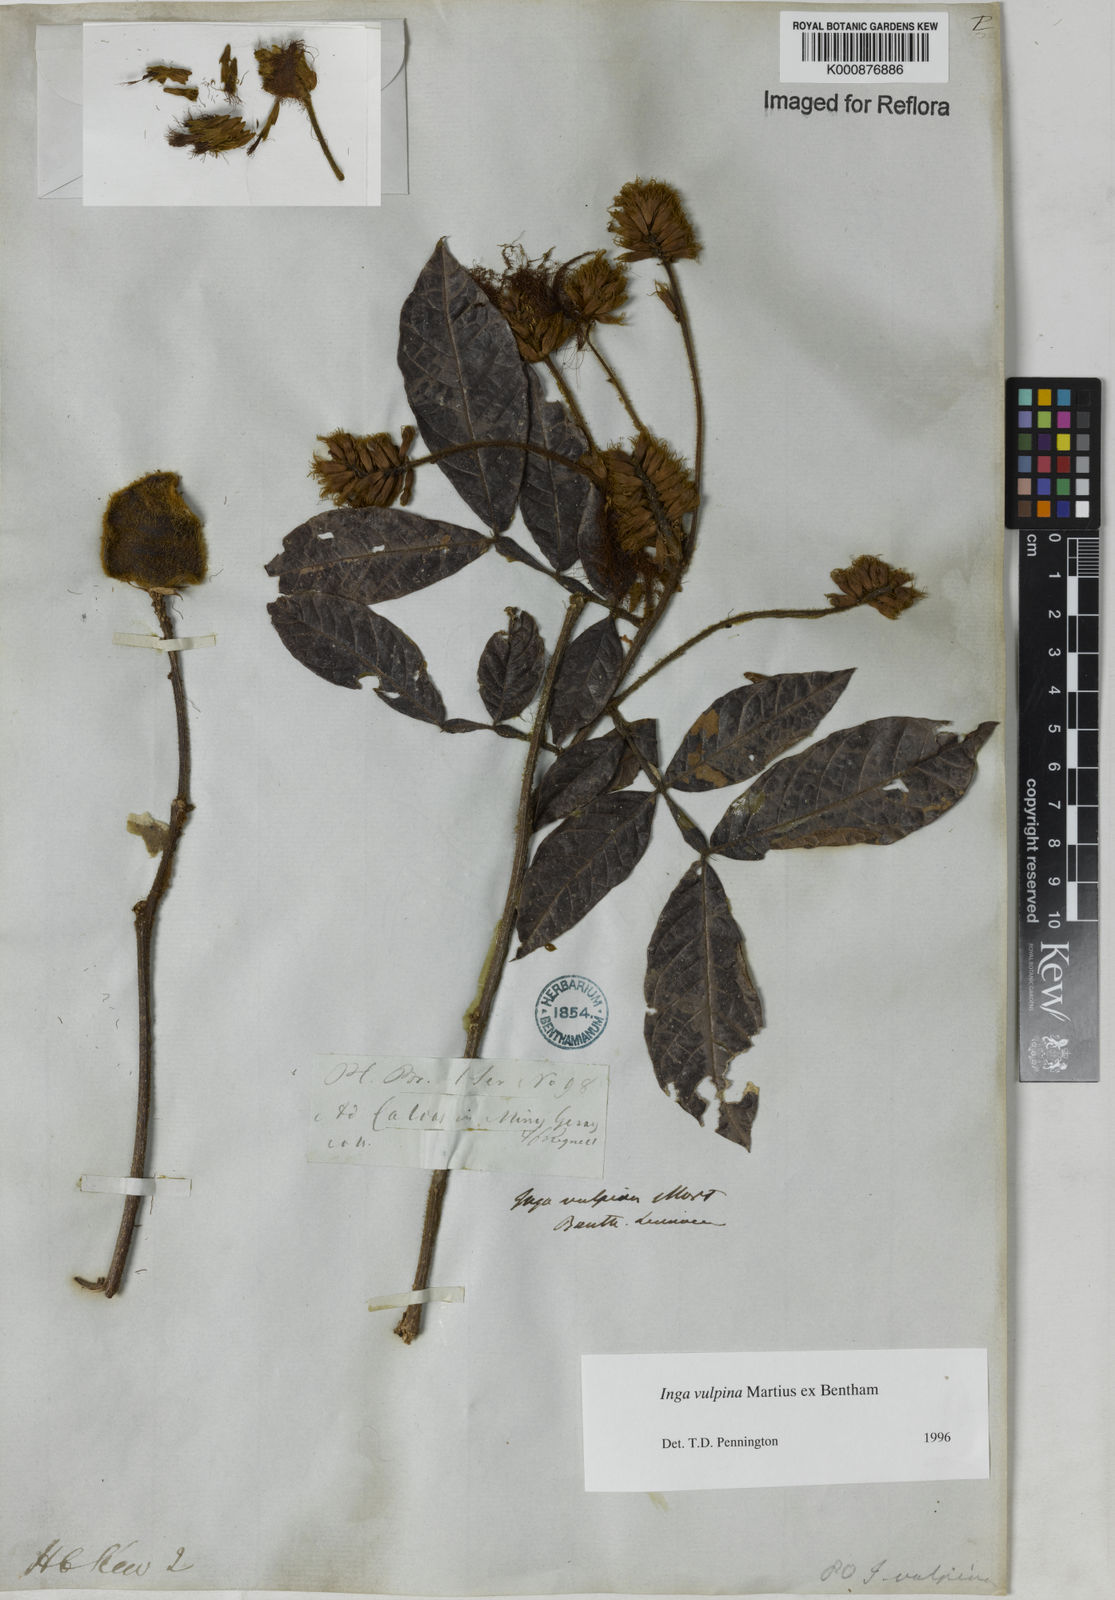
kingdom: Plantae
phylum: Tracheophyta
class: Magnoliopsida
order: Fabales
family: Fabaceae
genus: Inga
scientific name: Inga vulpina
